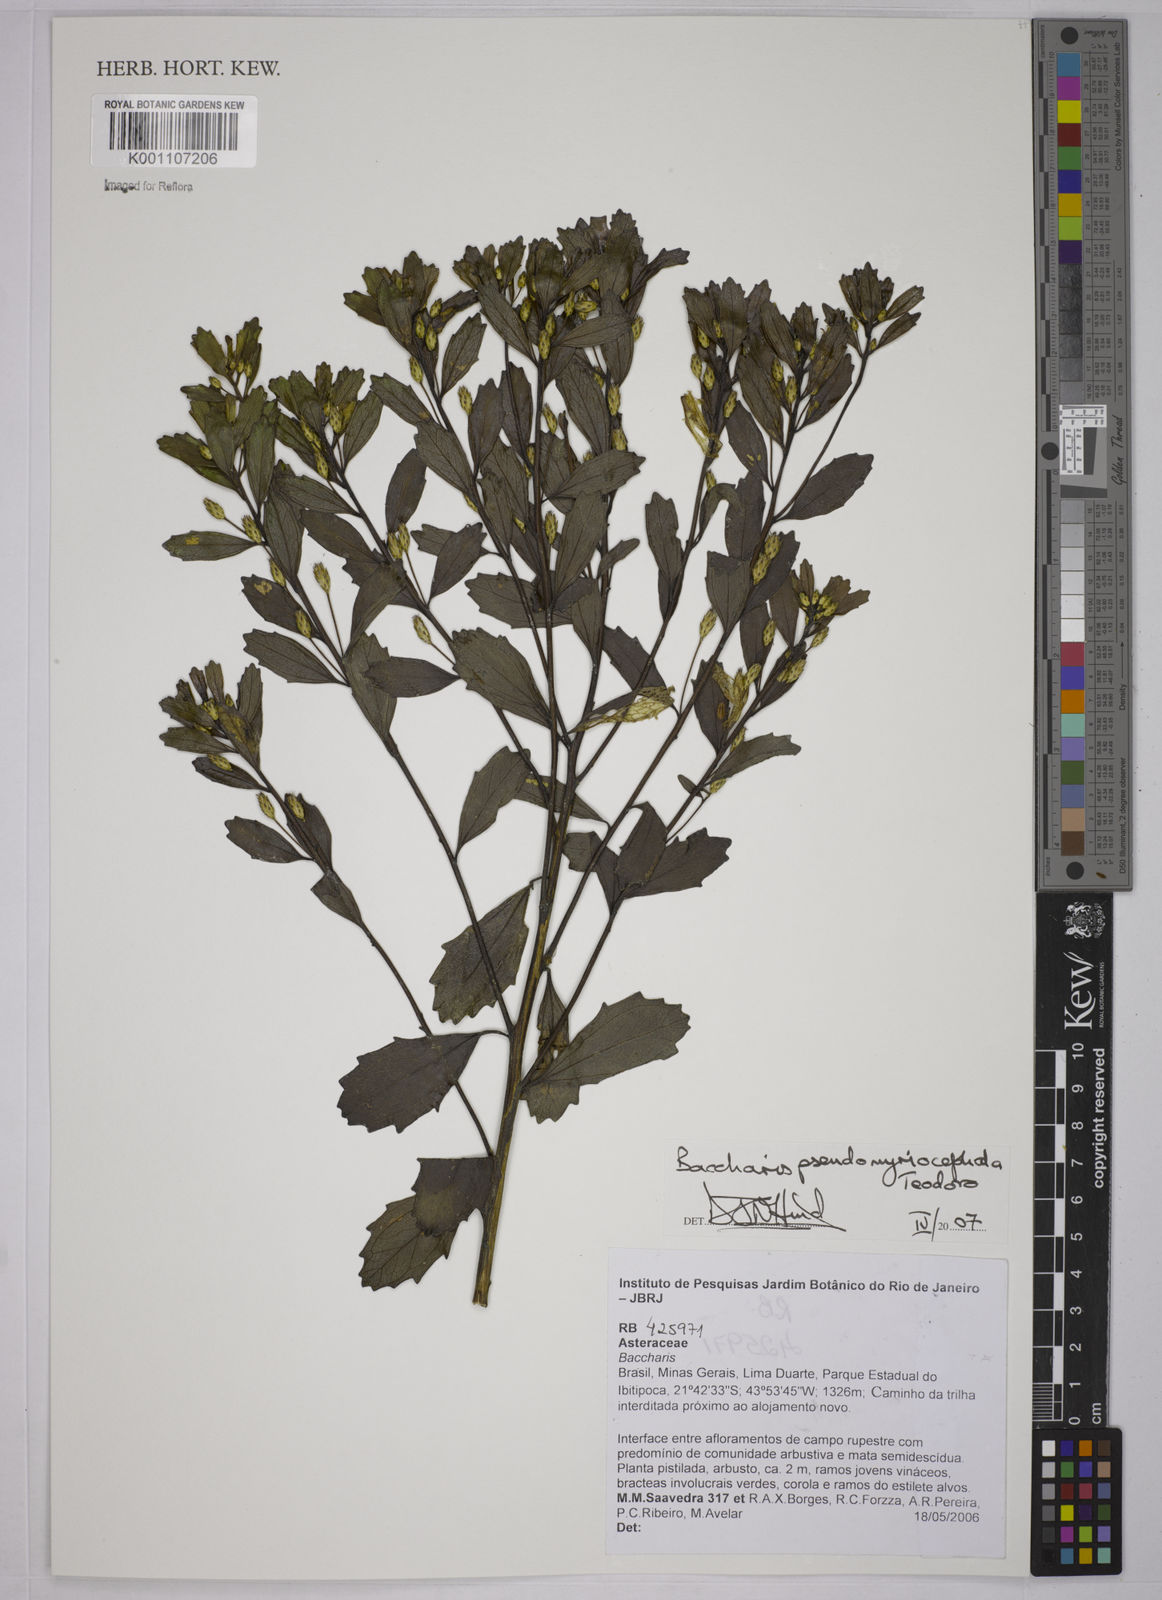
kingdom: Plantae
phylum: Tracheophyta
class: Magnoliopsida
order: Asterales
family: Asteraceae
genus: Baccharis
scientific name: Baccharis pseudomyriocephala
